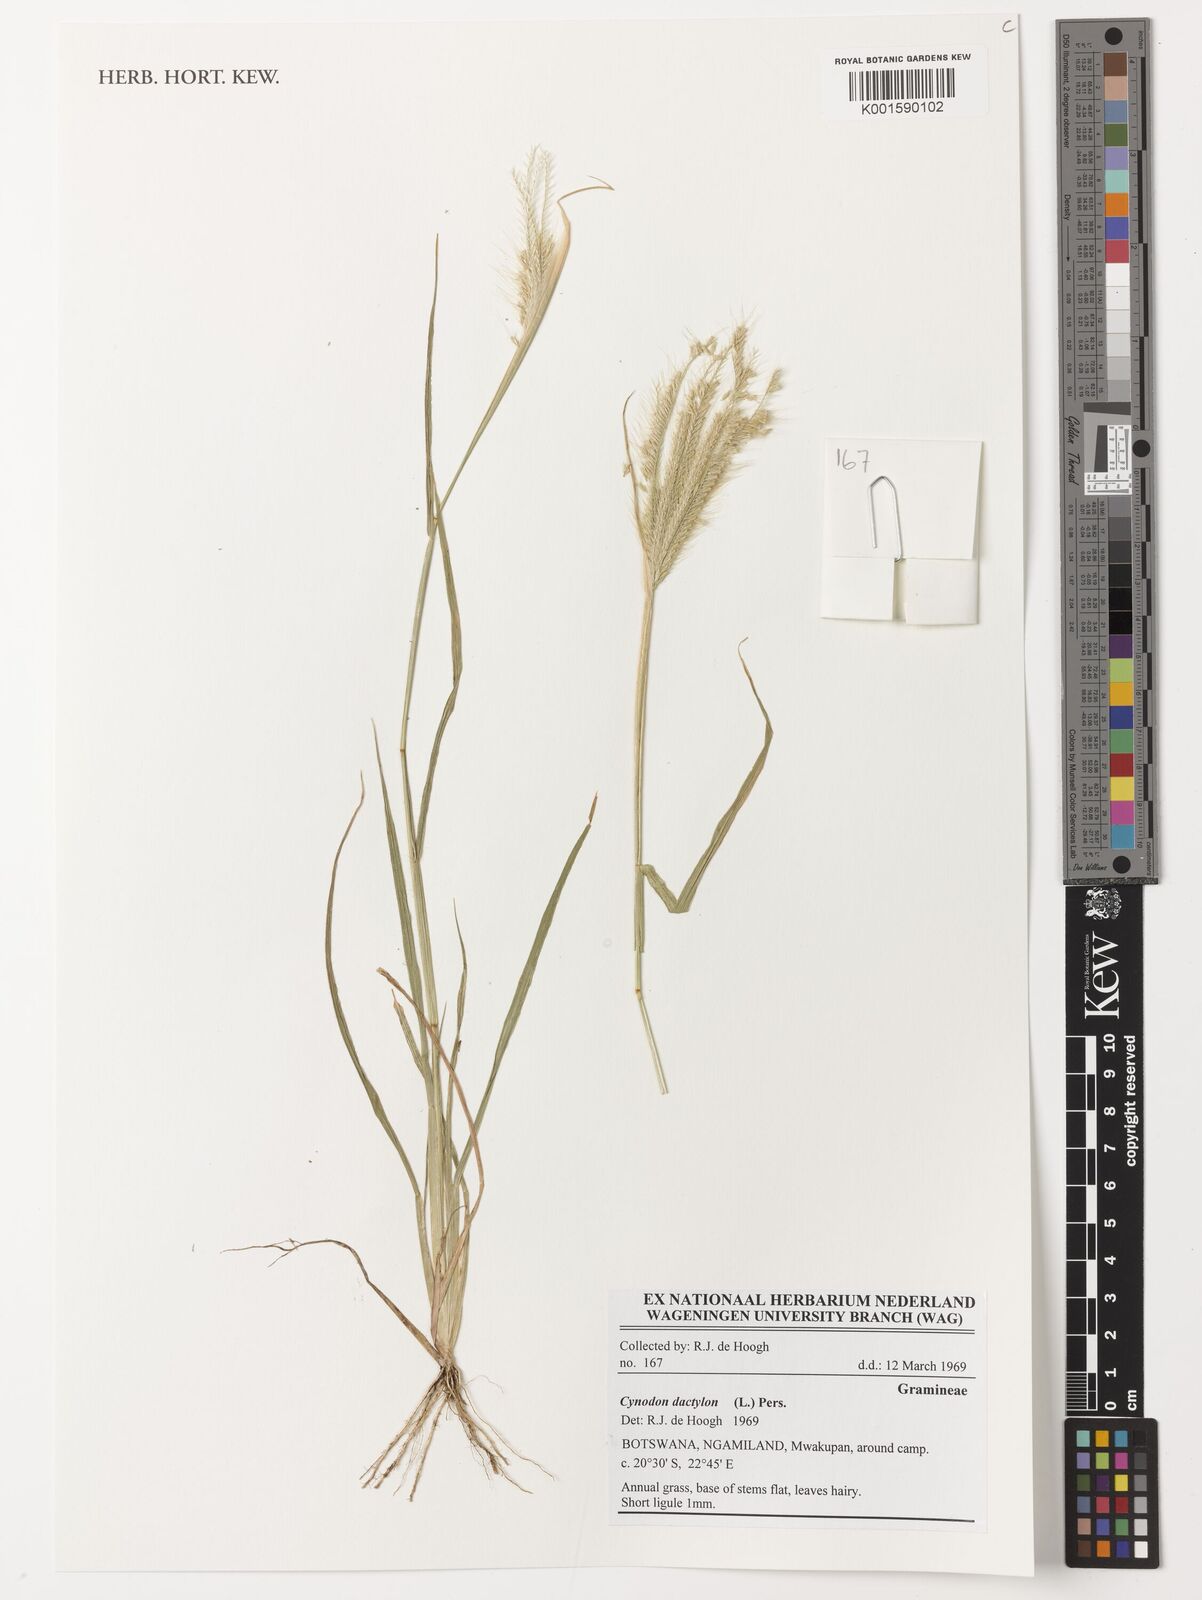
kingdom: Plantae
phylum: Tracheophyta
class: Liliopsida
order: Poales
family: Poaceae
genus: Cynodon
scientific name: Cynodon dactylon
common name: Bermuda grass
